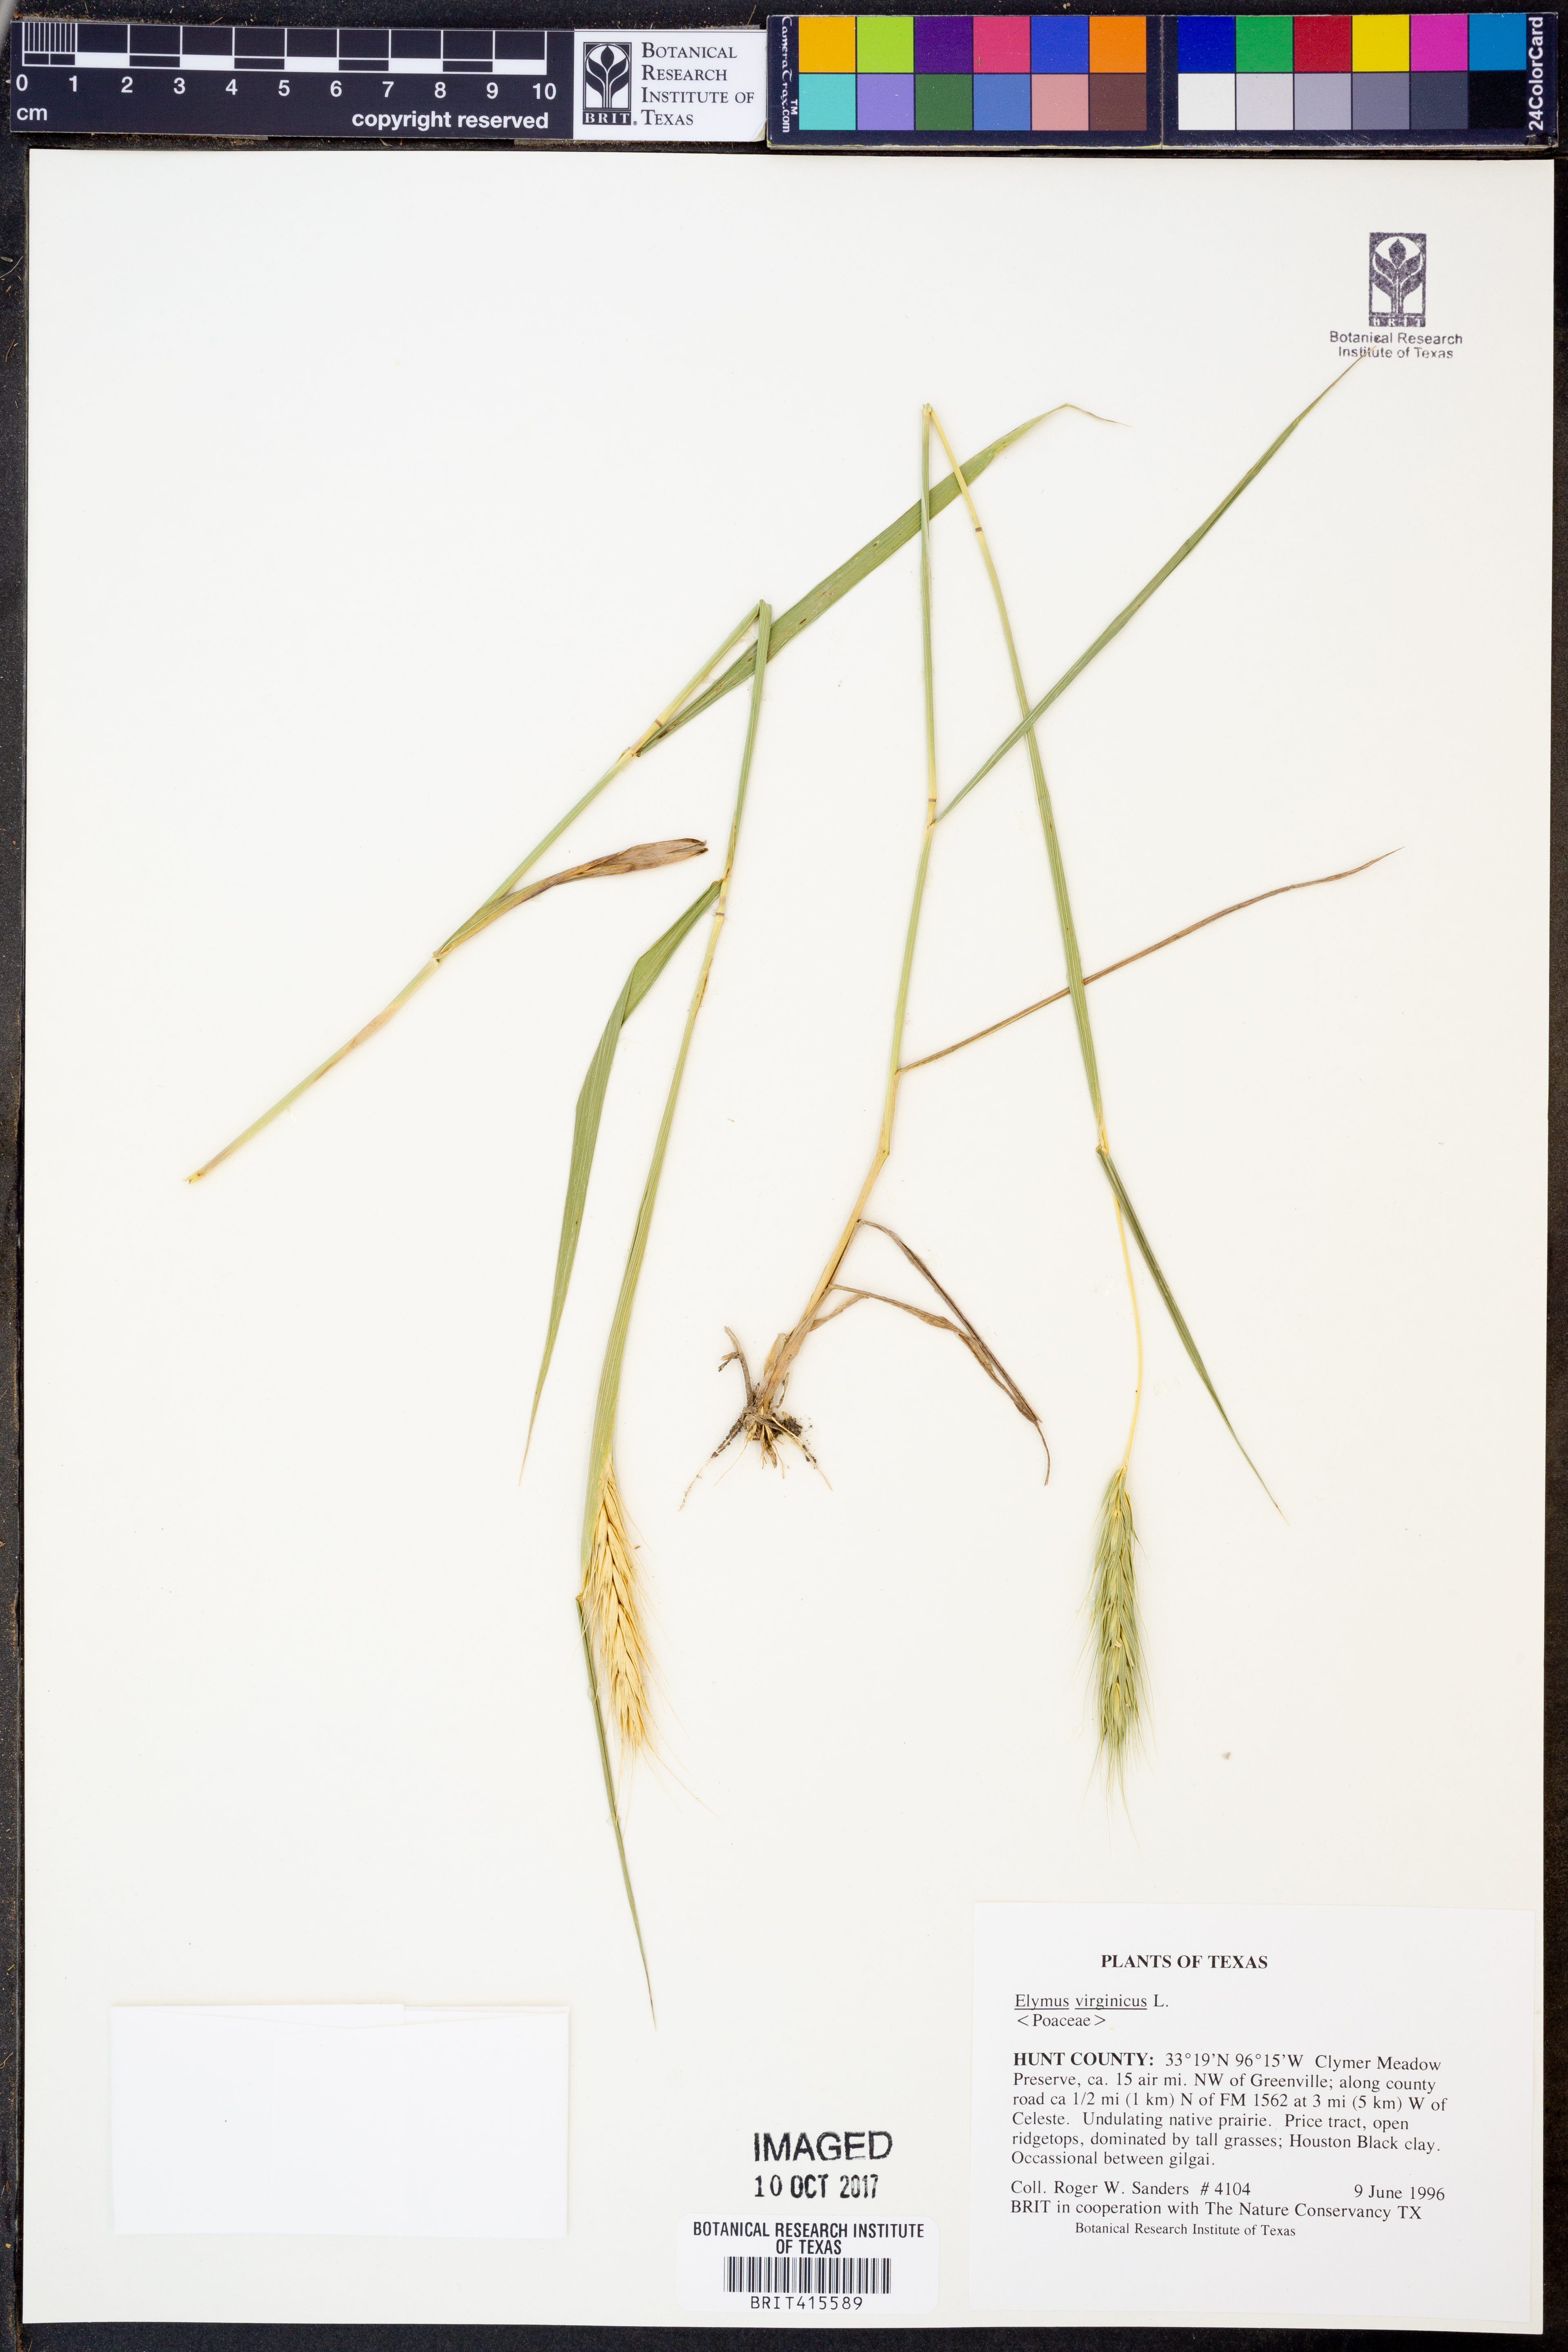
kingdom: Plantae
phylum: Tracheophyta
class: Liliopsida
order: Poales
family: Poaceae
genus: Elymus
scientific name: Elymus virginicus
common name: Common eastern wildrye
